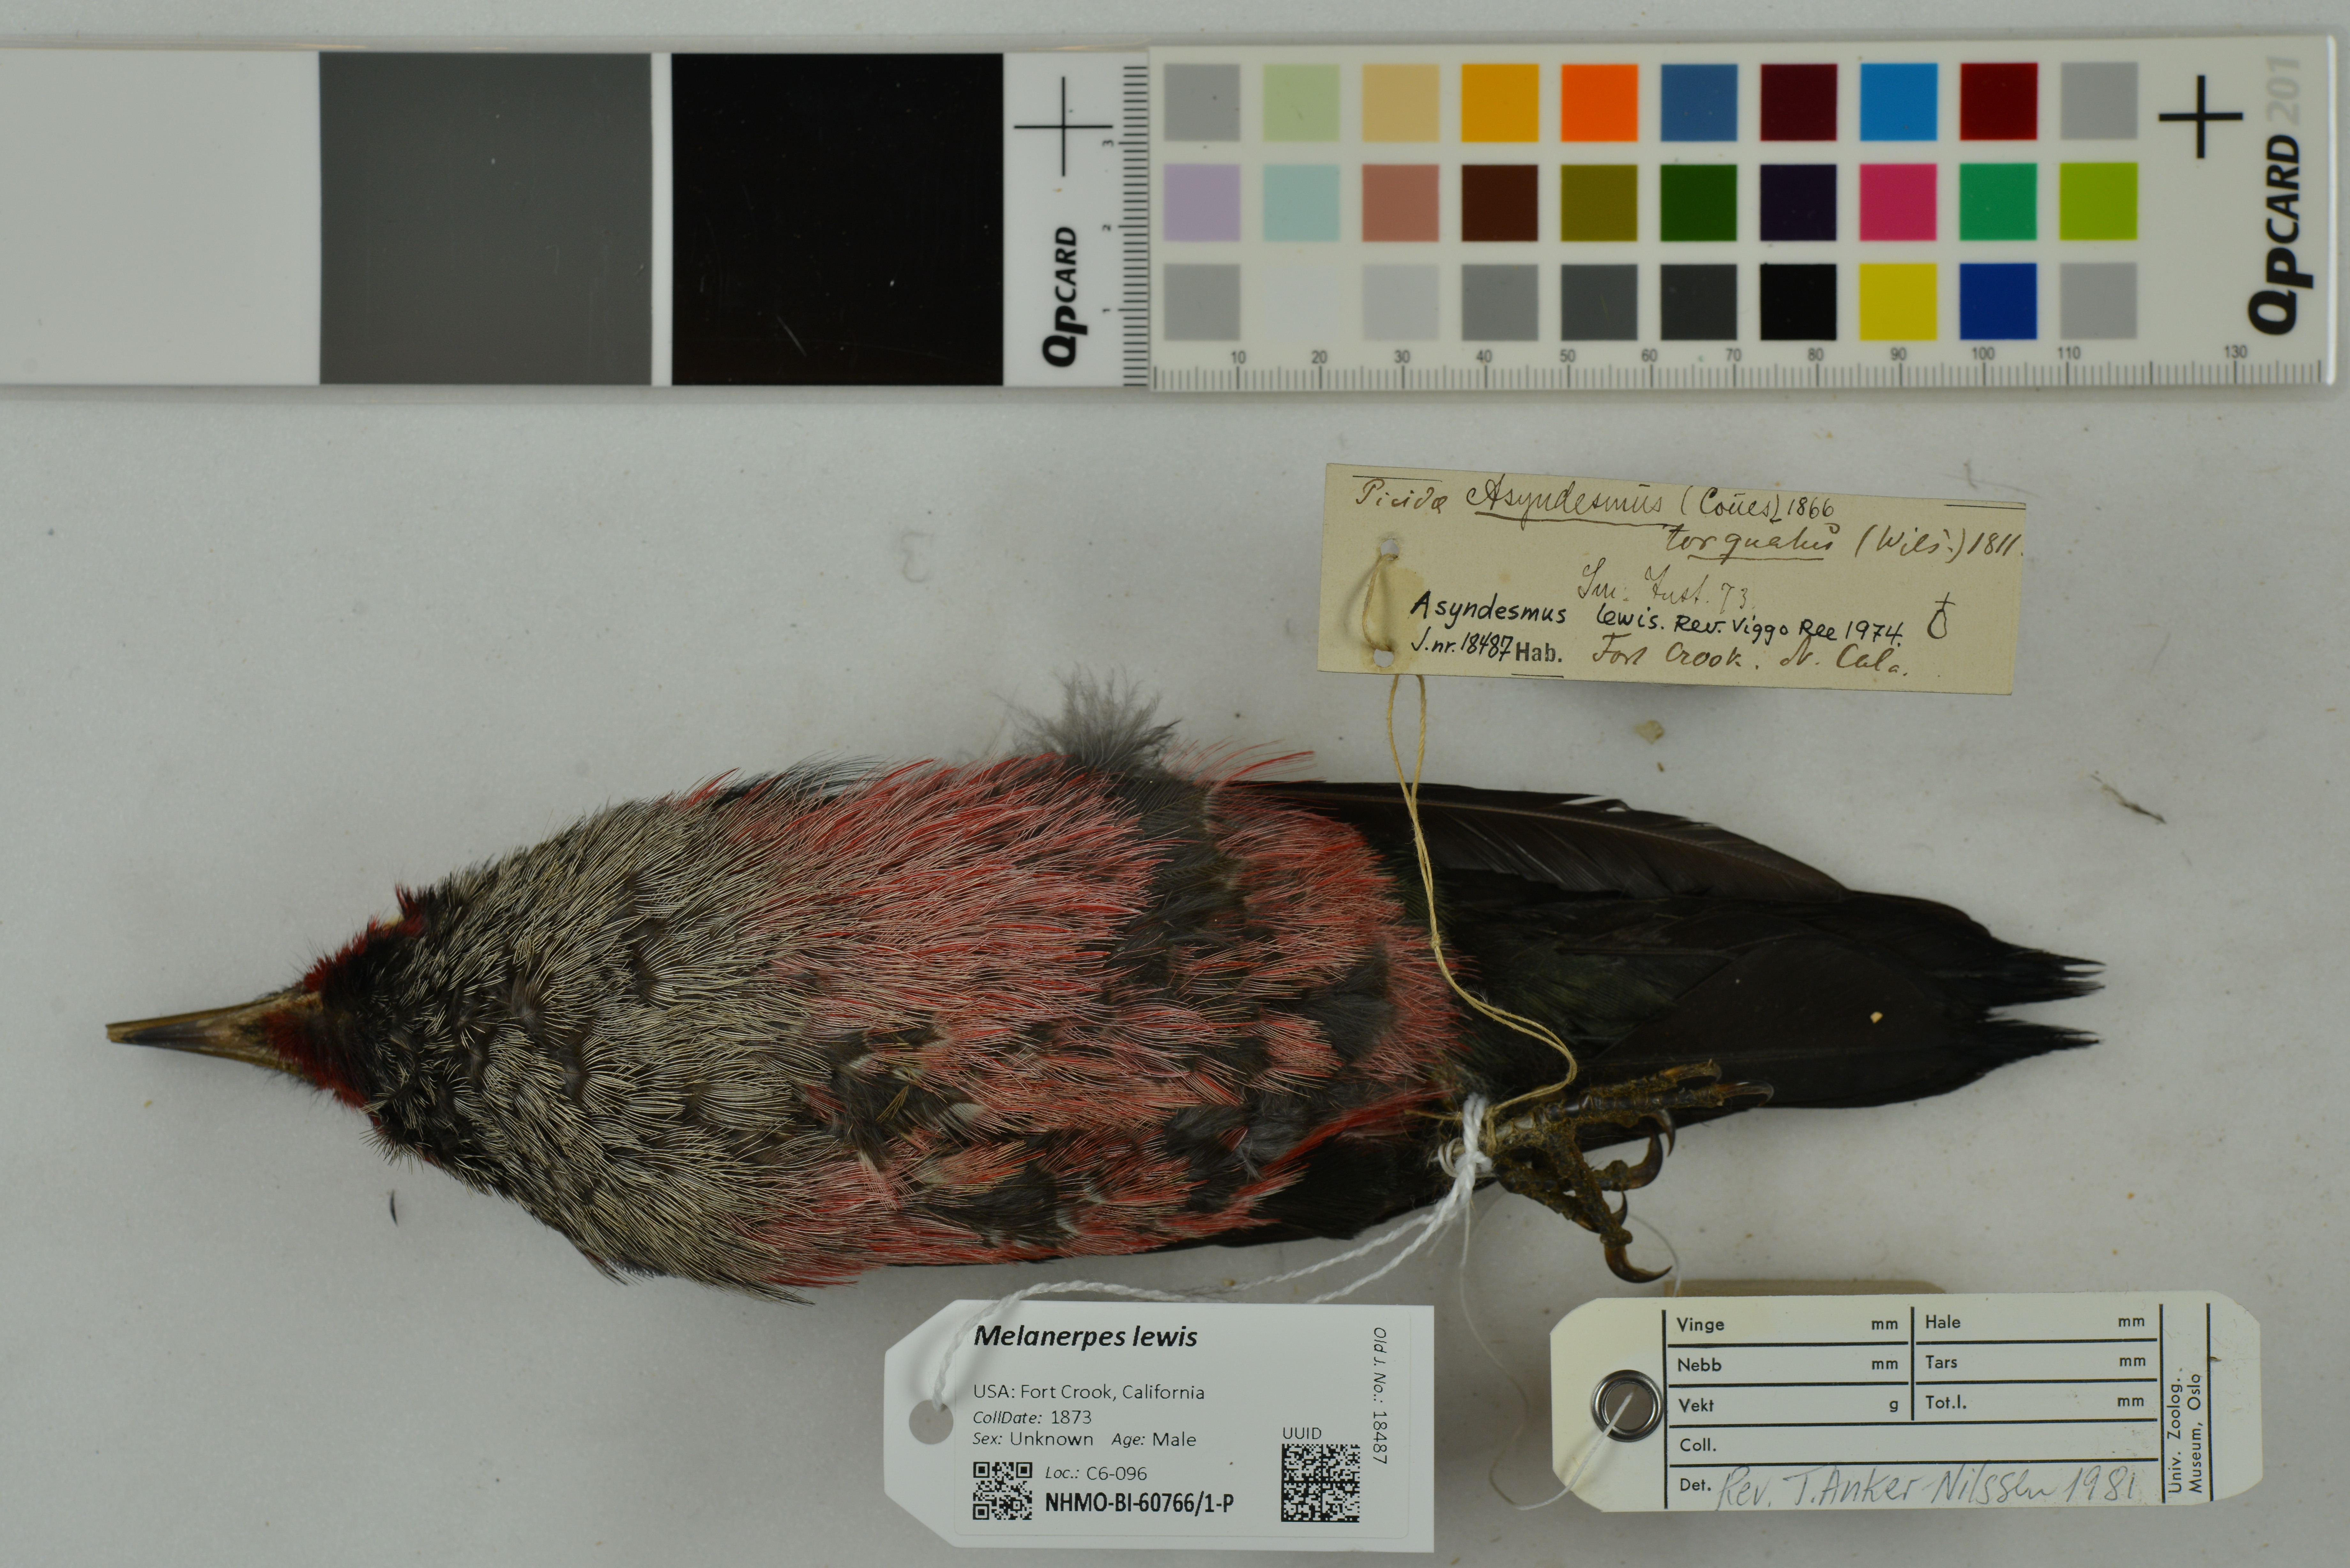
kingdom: Animalia
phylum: Chordata
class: Aves
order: Piciformes
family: Picidae
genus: Melanerpes
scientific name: Melanerpes lewis
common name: Lewis's woodpecker
